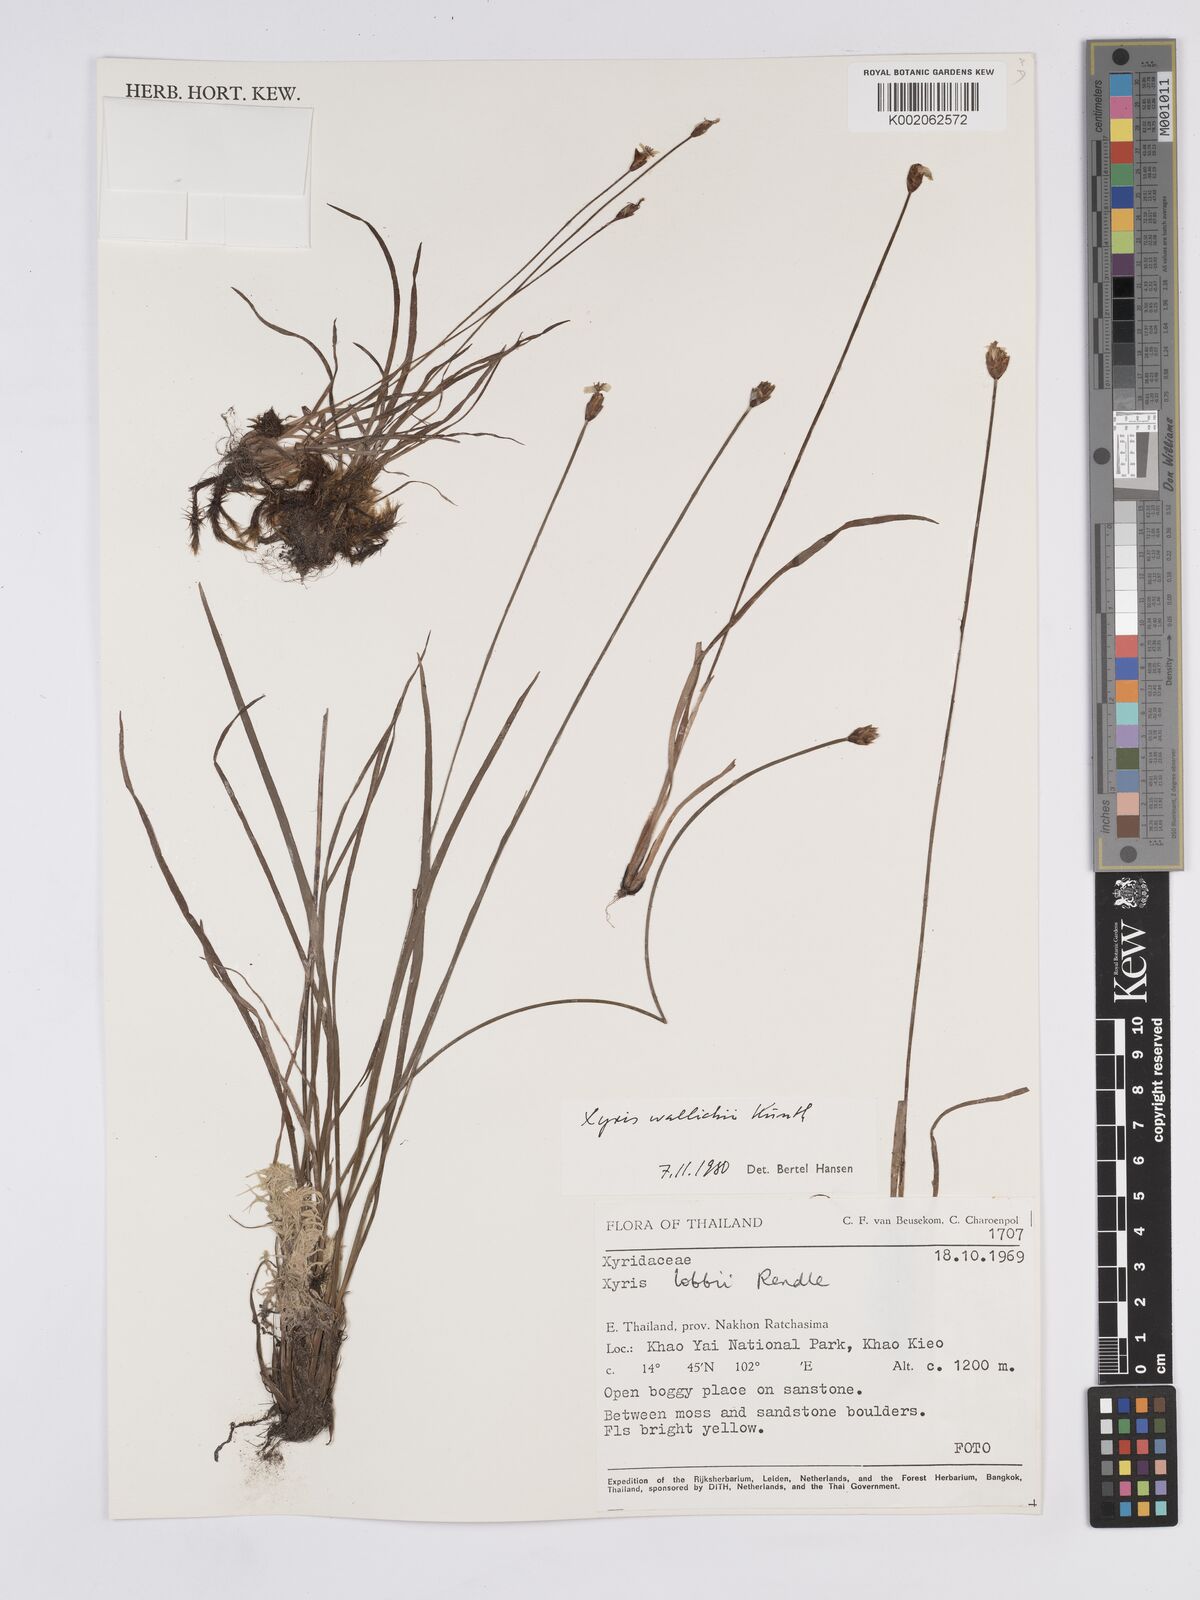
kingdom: Plantae
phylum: Tracheophyta
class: Liliopsida
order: Poales
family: Xyridaceae
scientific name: Xyridaceae
